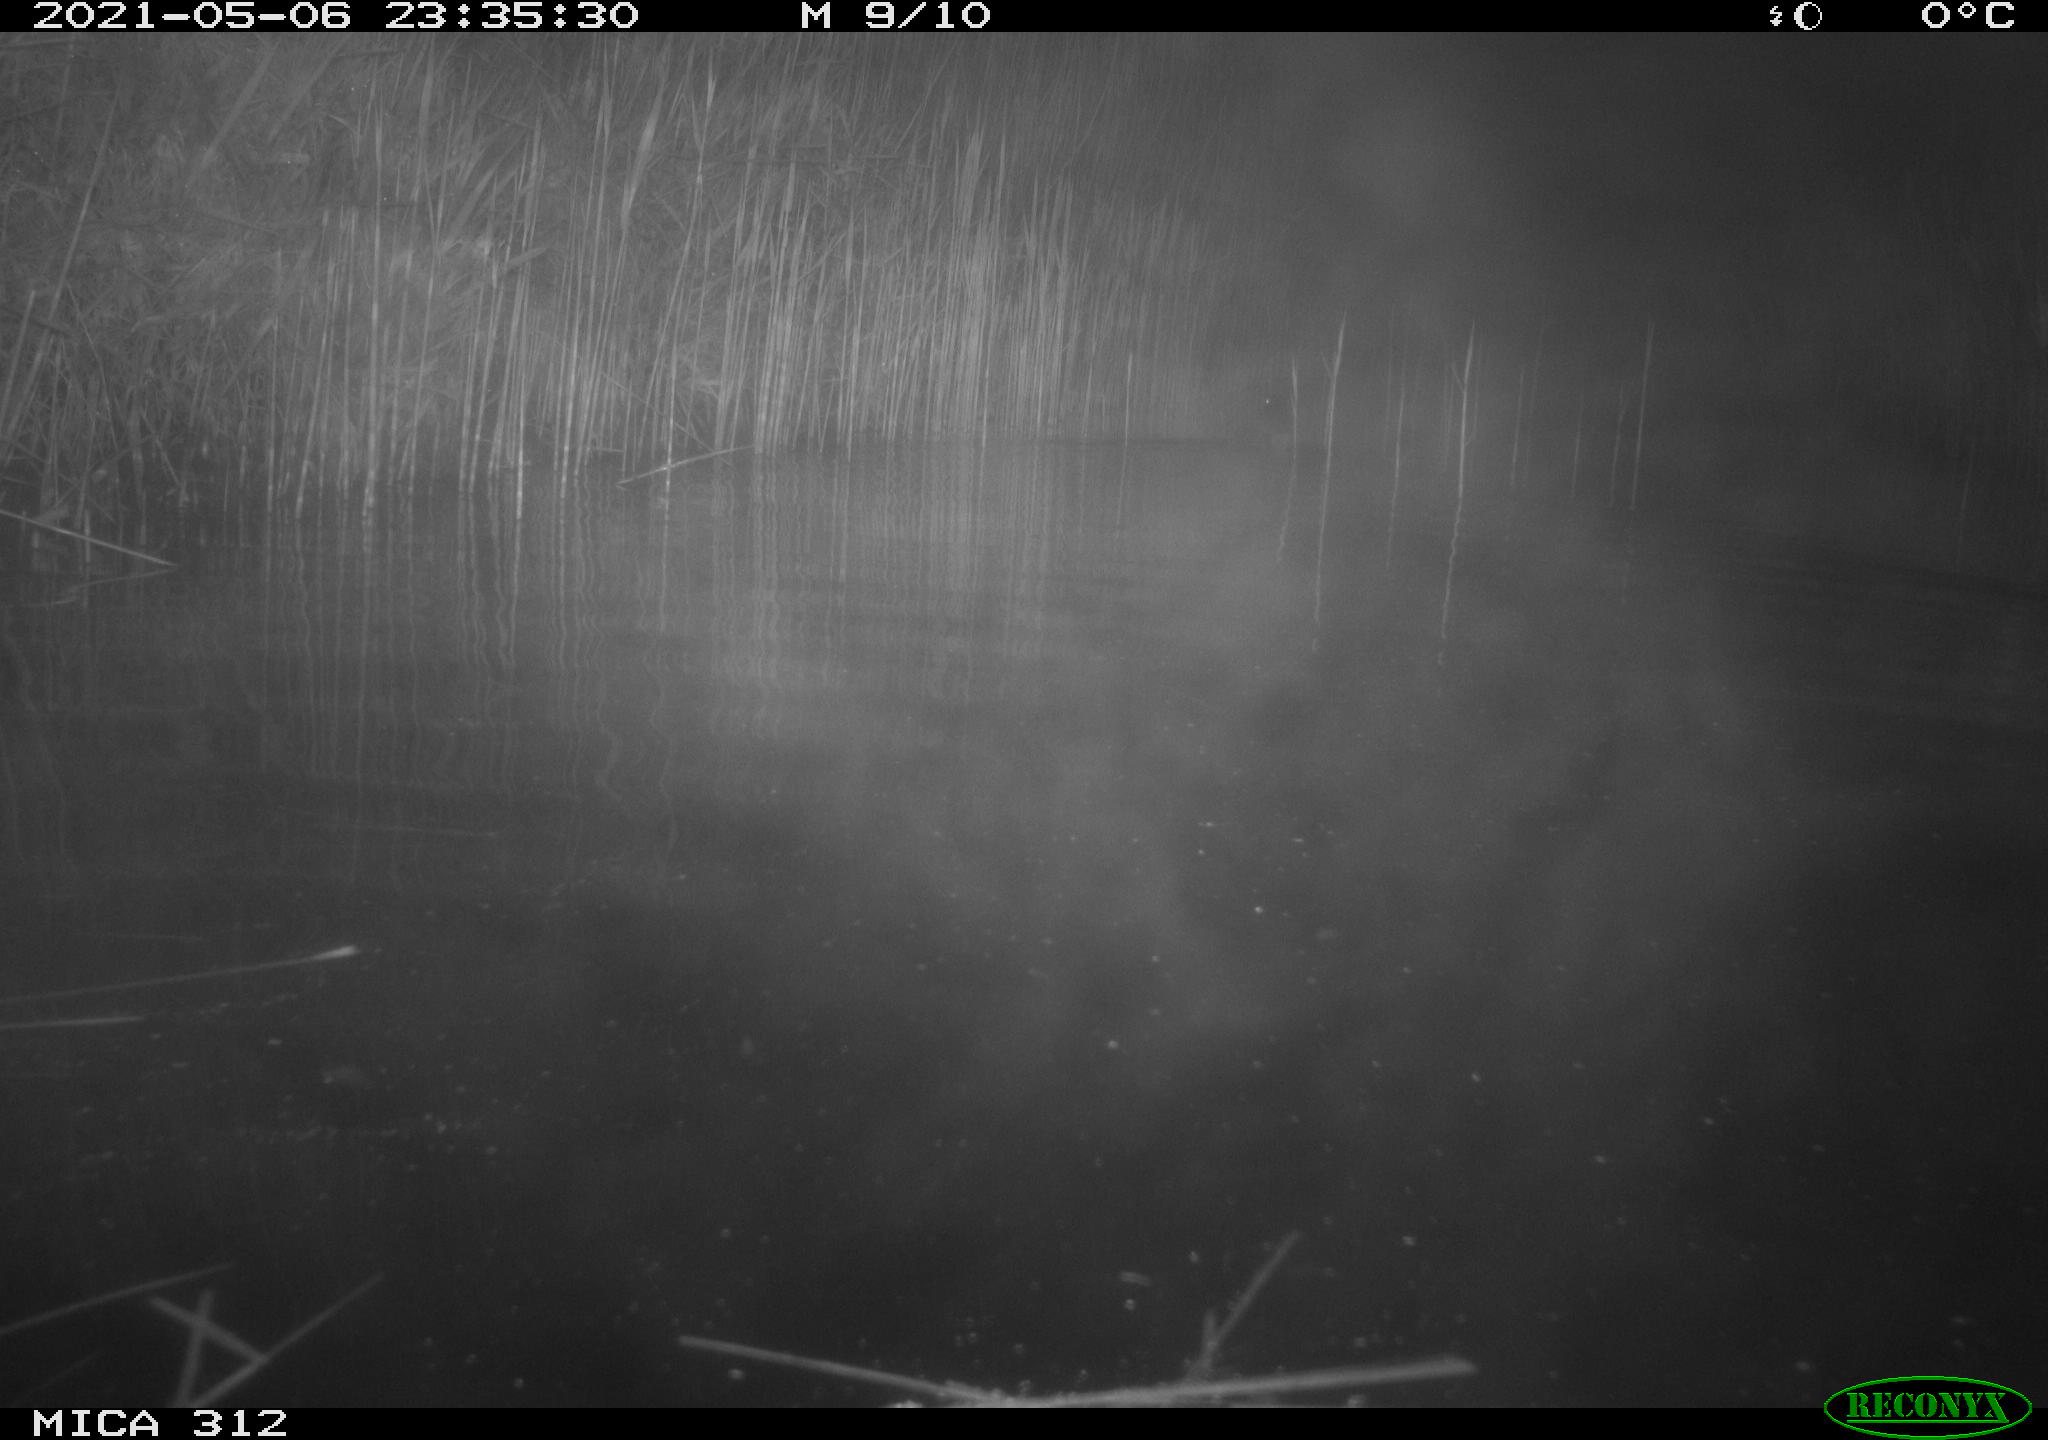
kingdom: Animalia
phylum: Chordata
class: Aves
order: Anseriformes
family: Anatidae
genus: Anas
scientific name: Anas platyrhynchos
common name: Mallard
